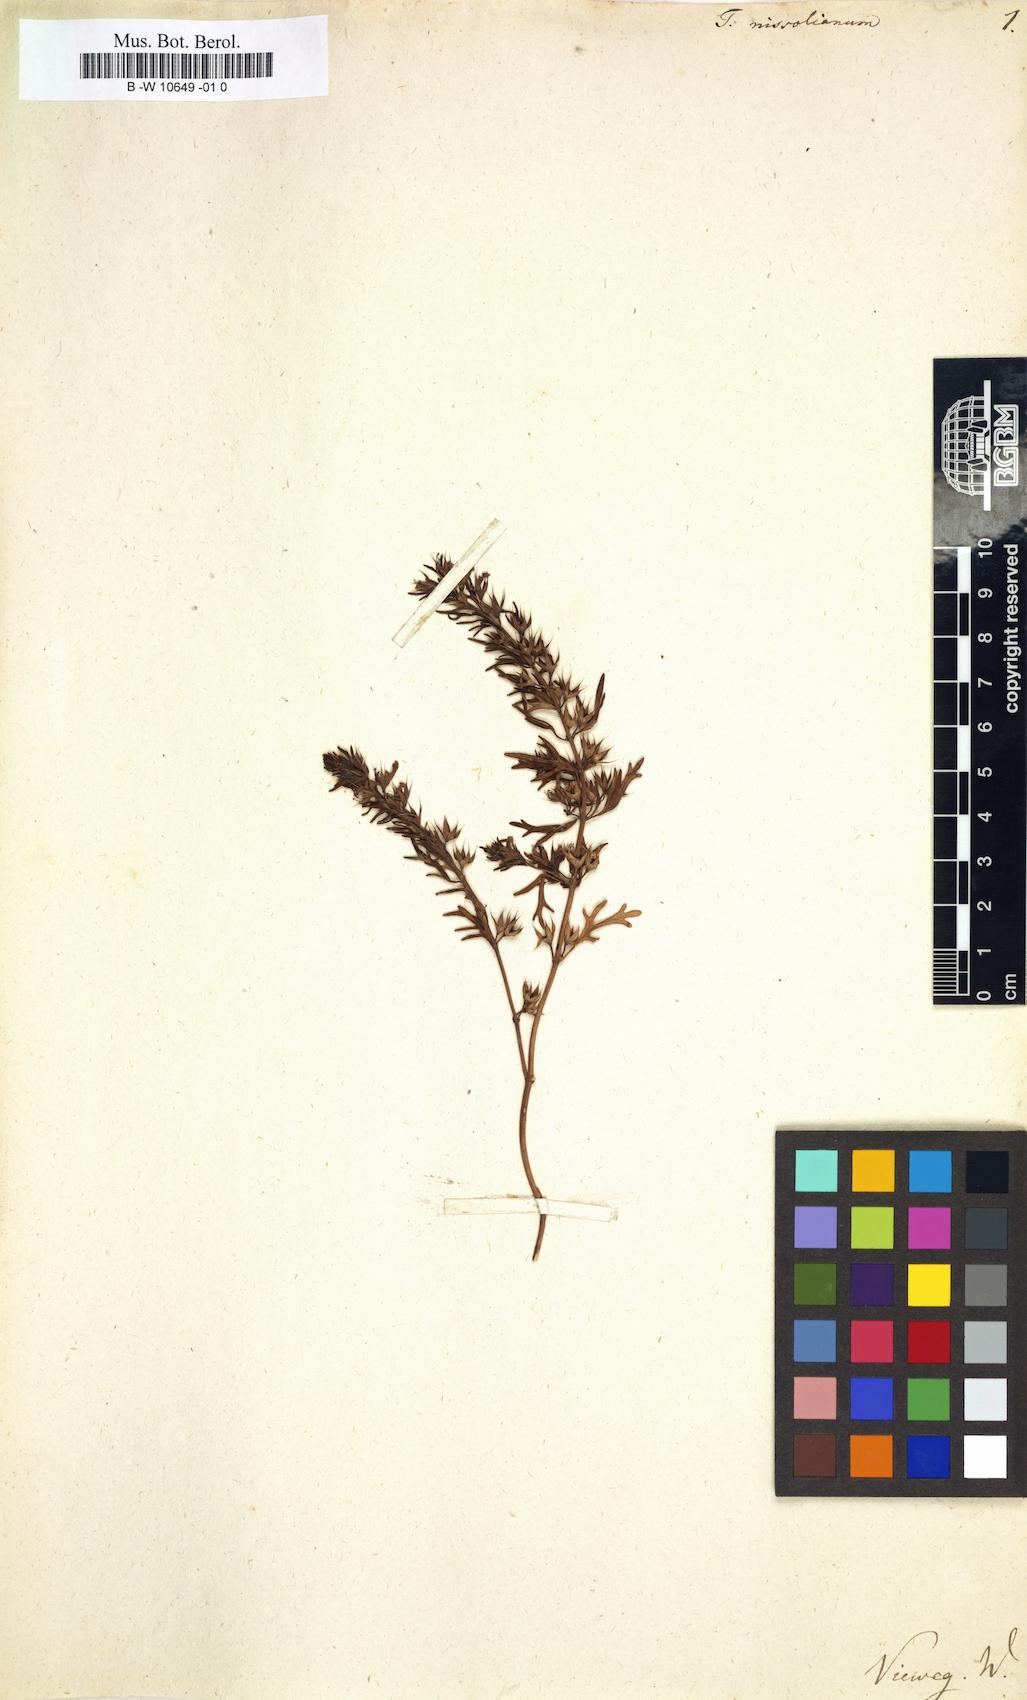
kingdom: Plantae
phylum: Tracheophyta
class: Magnoliopsida
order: Lamiales
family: Lamiaceae
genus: Teucrium
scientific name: Teucrium pseudochamaepitys
